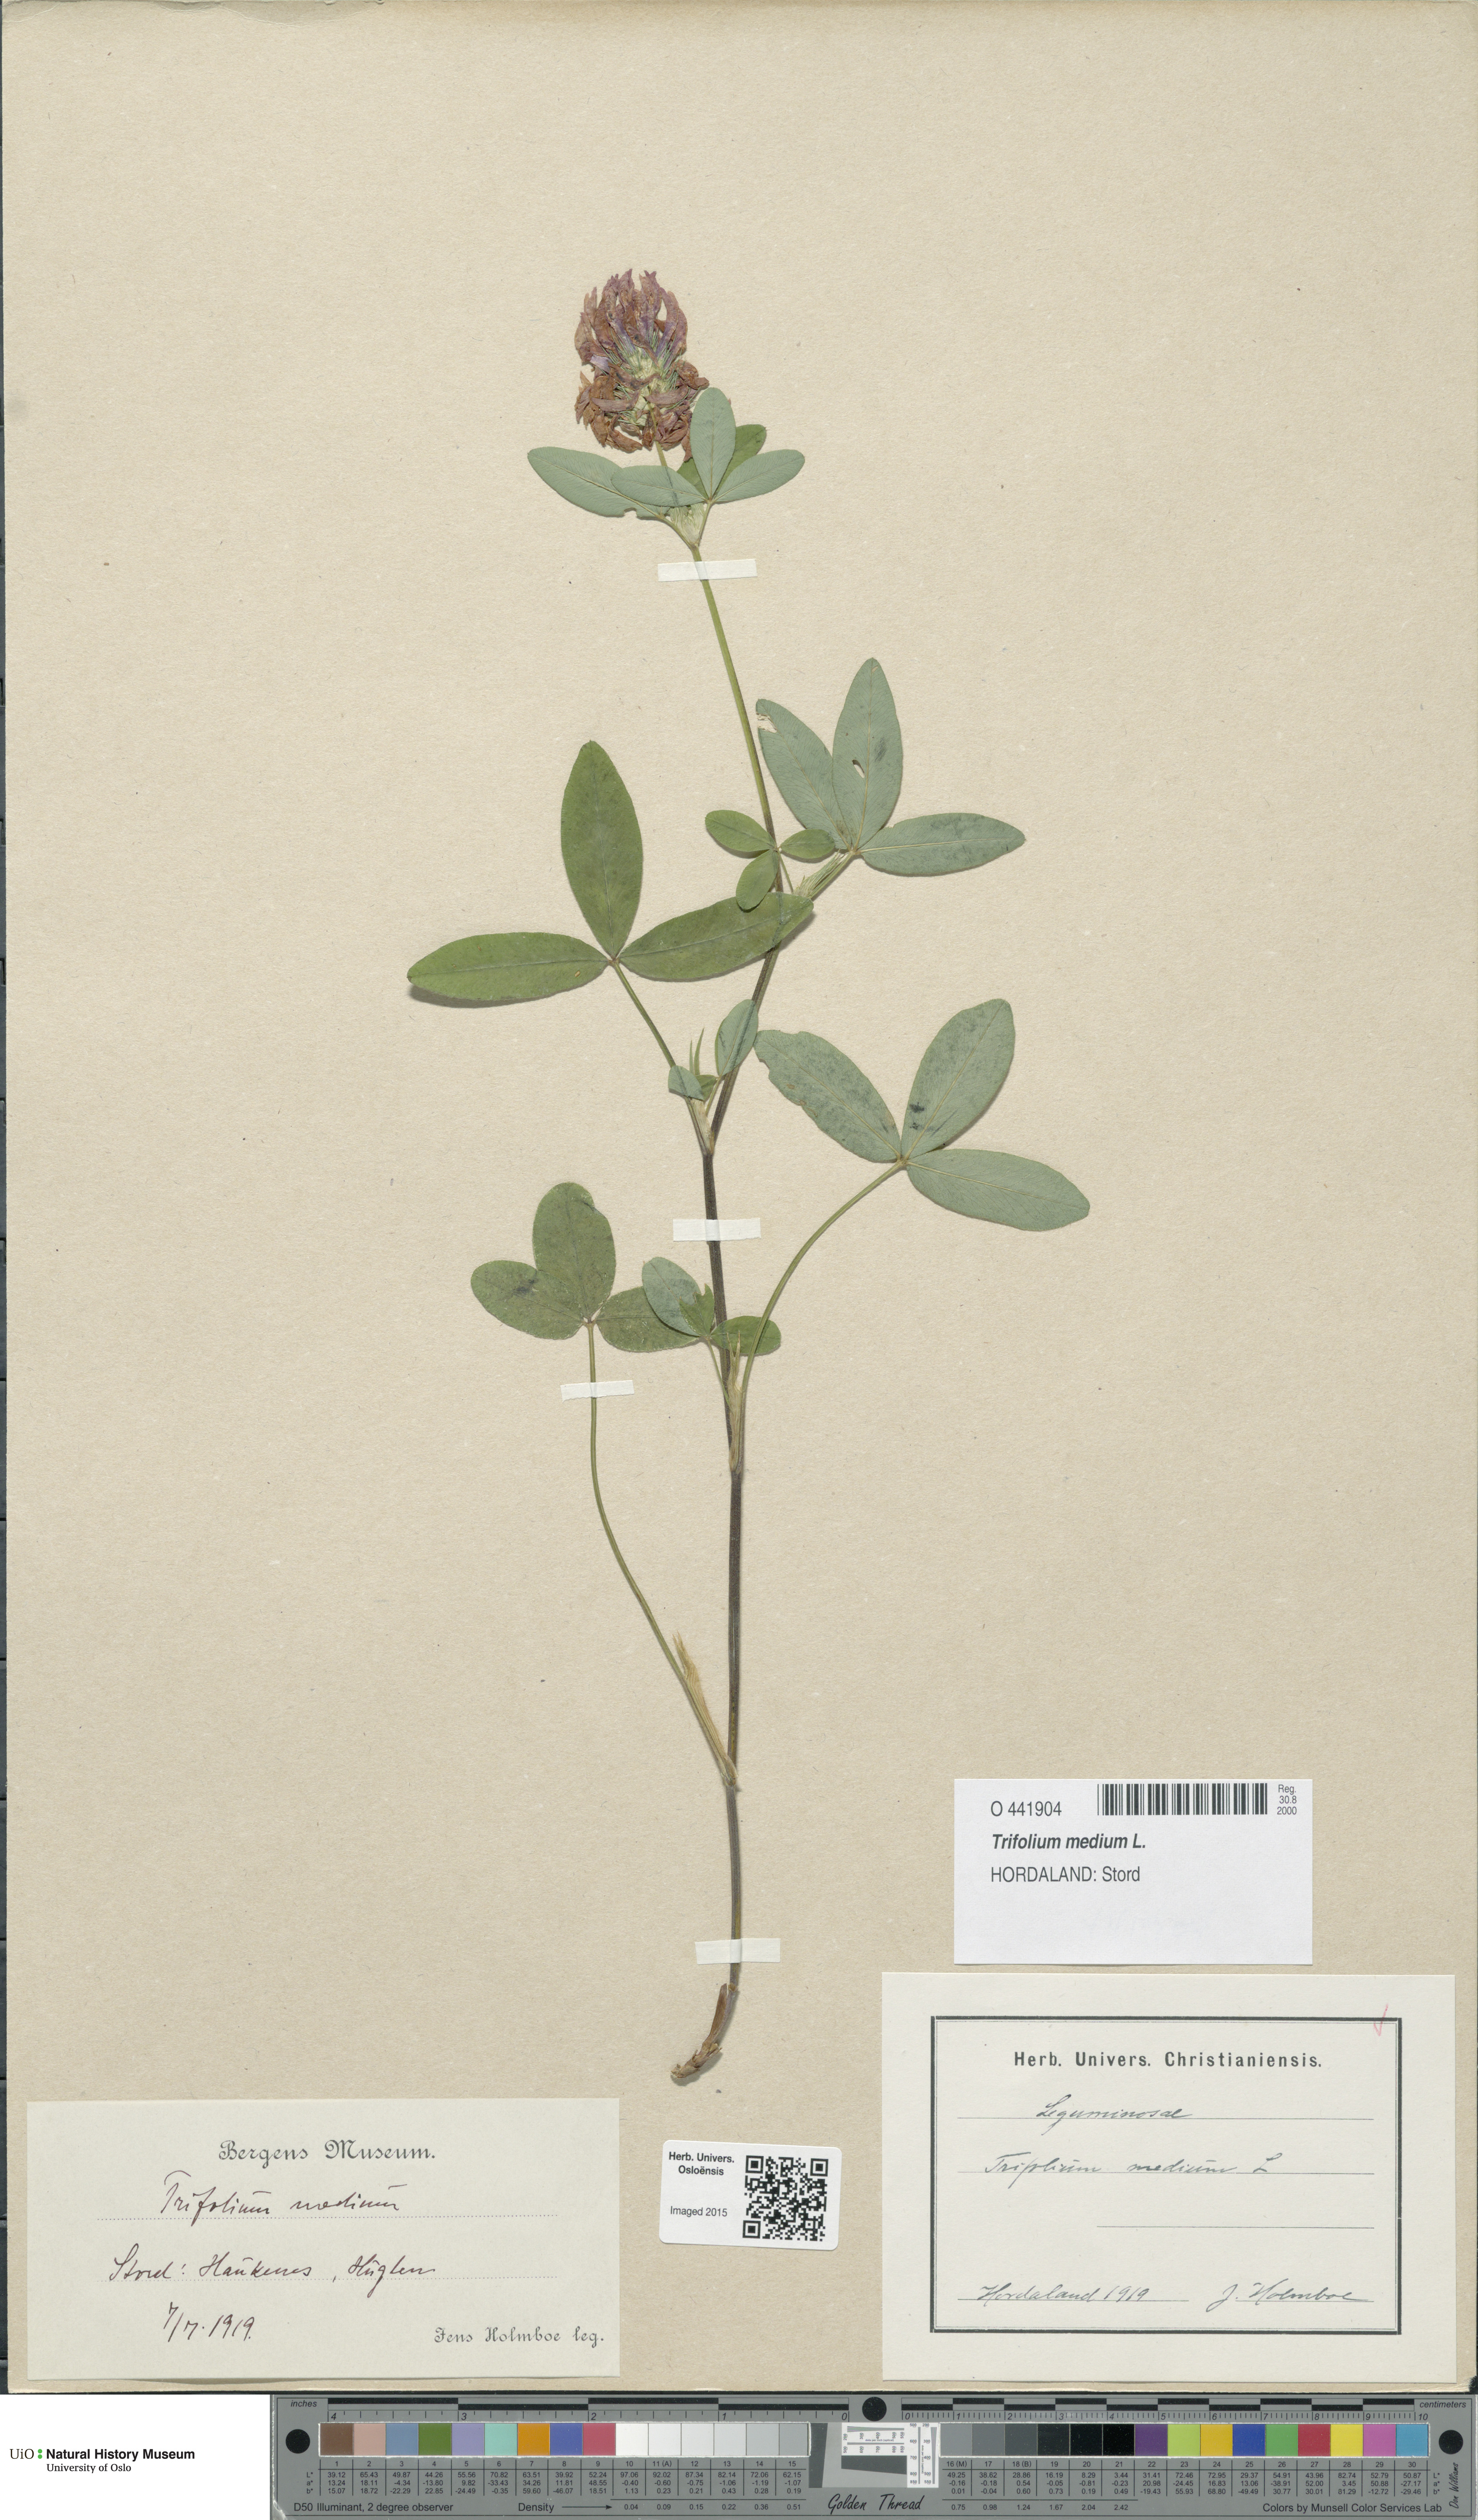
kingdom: Plantae
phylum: Tracheophyta
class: Magnoliopsida
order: Fabales
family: Fabaceae
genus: Trifolium
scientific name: Trifolium medium
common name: Zigzag clover
